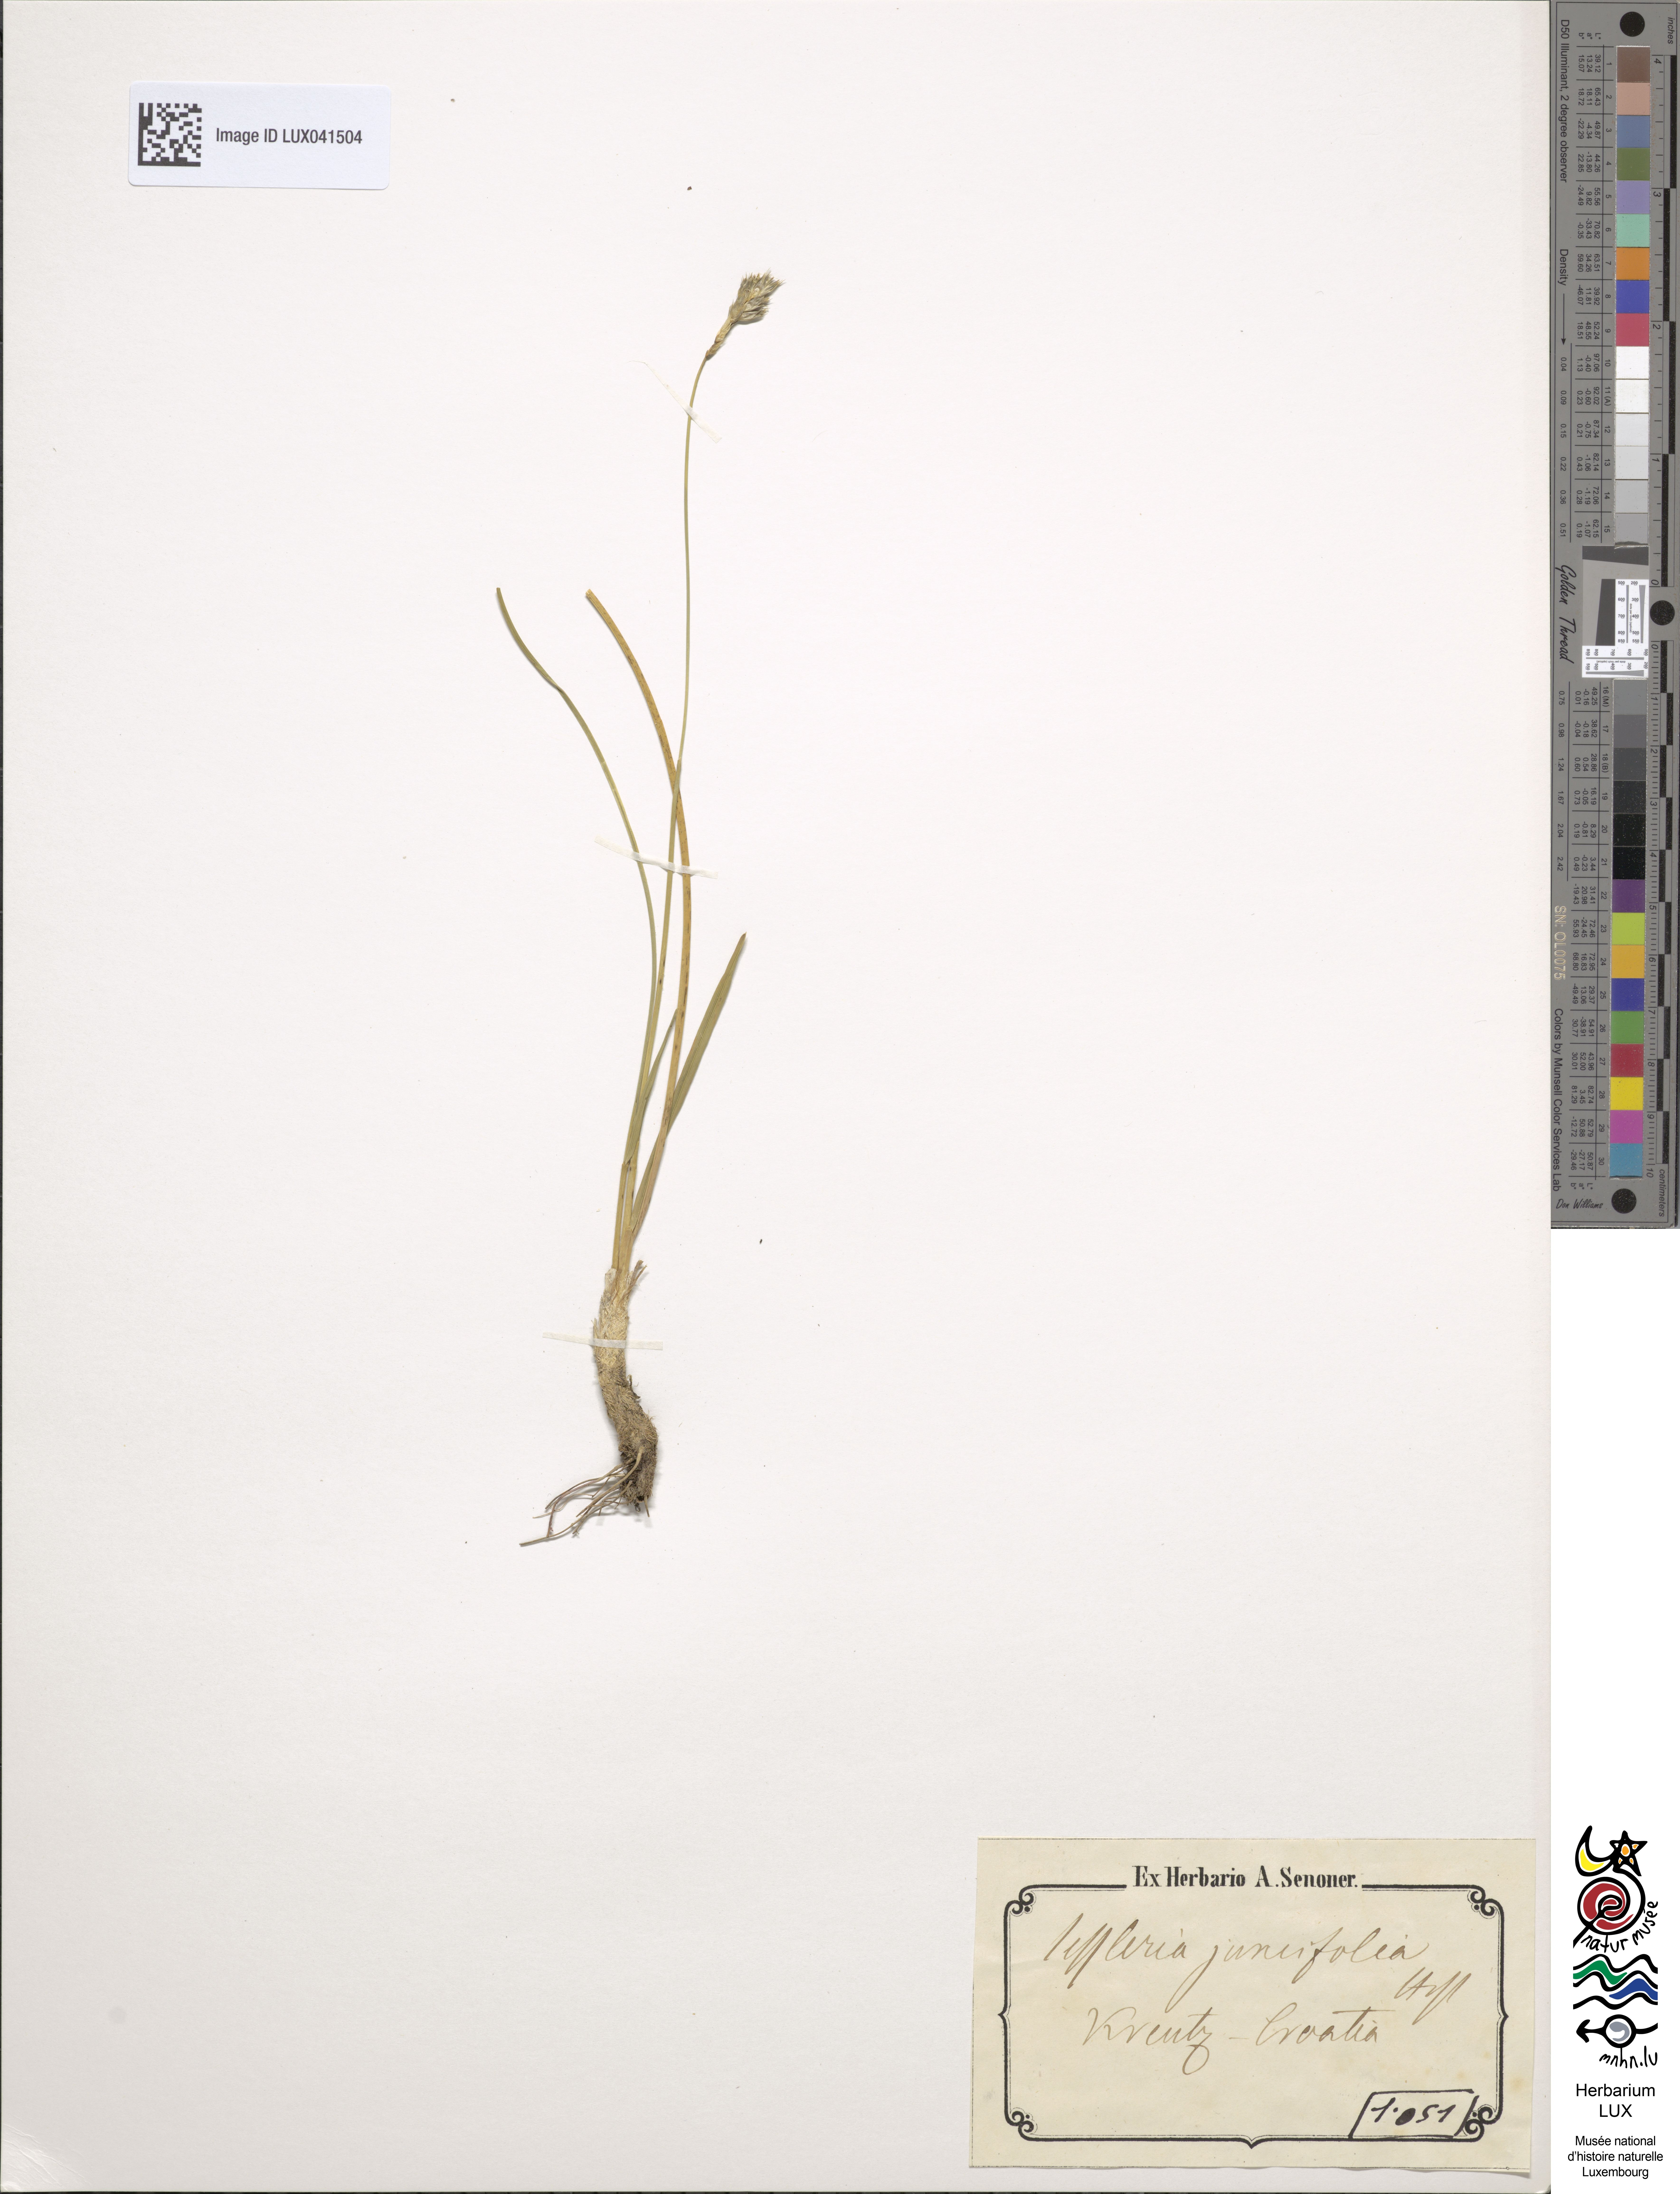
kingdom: Plantae
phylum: Tracheophyta
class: Liliopsida
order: Poales
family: Poaceae
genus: Sesleria
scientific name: Sesleria juncifolia
